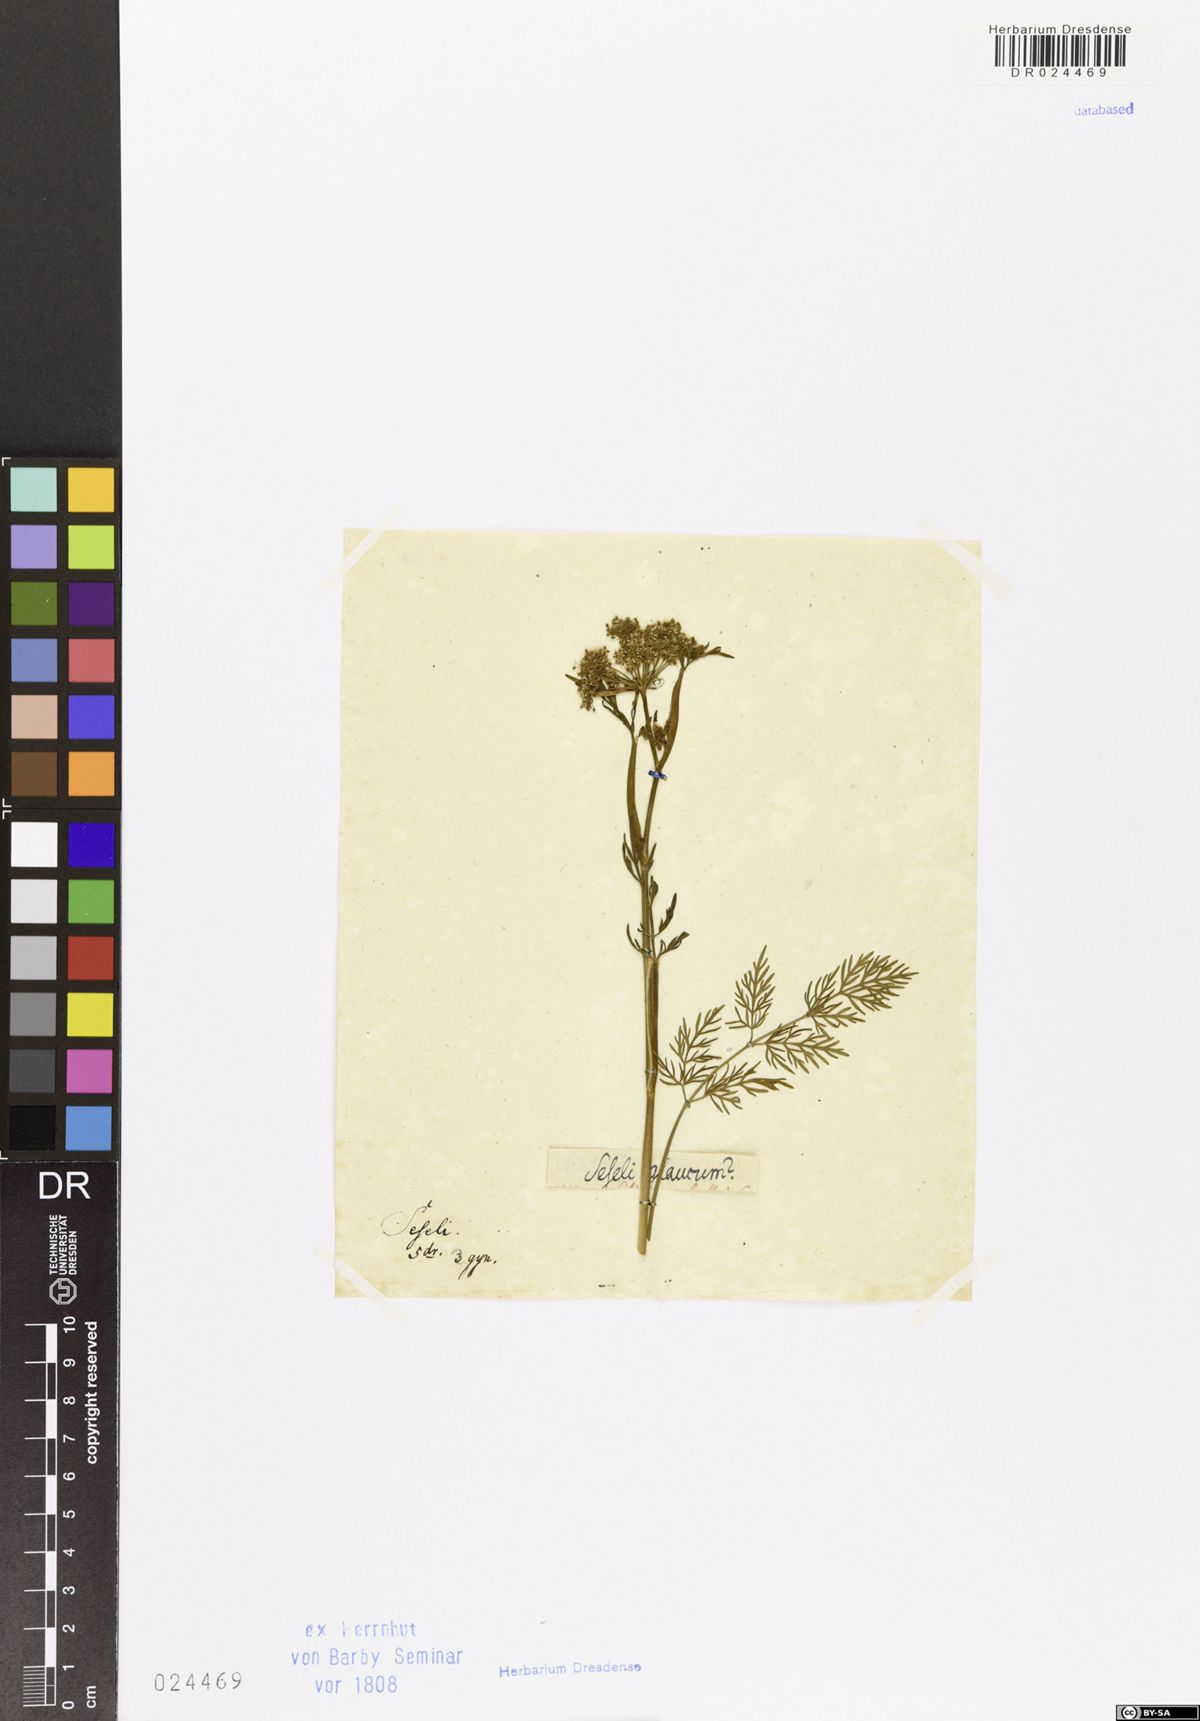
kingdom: Plantae
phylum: Tracheophyta
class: Magnoliopsida
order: Apiales
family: Apiaceae
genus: Seseli
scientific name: Seseli montanum
